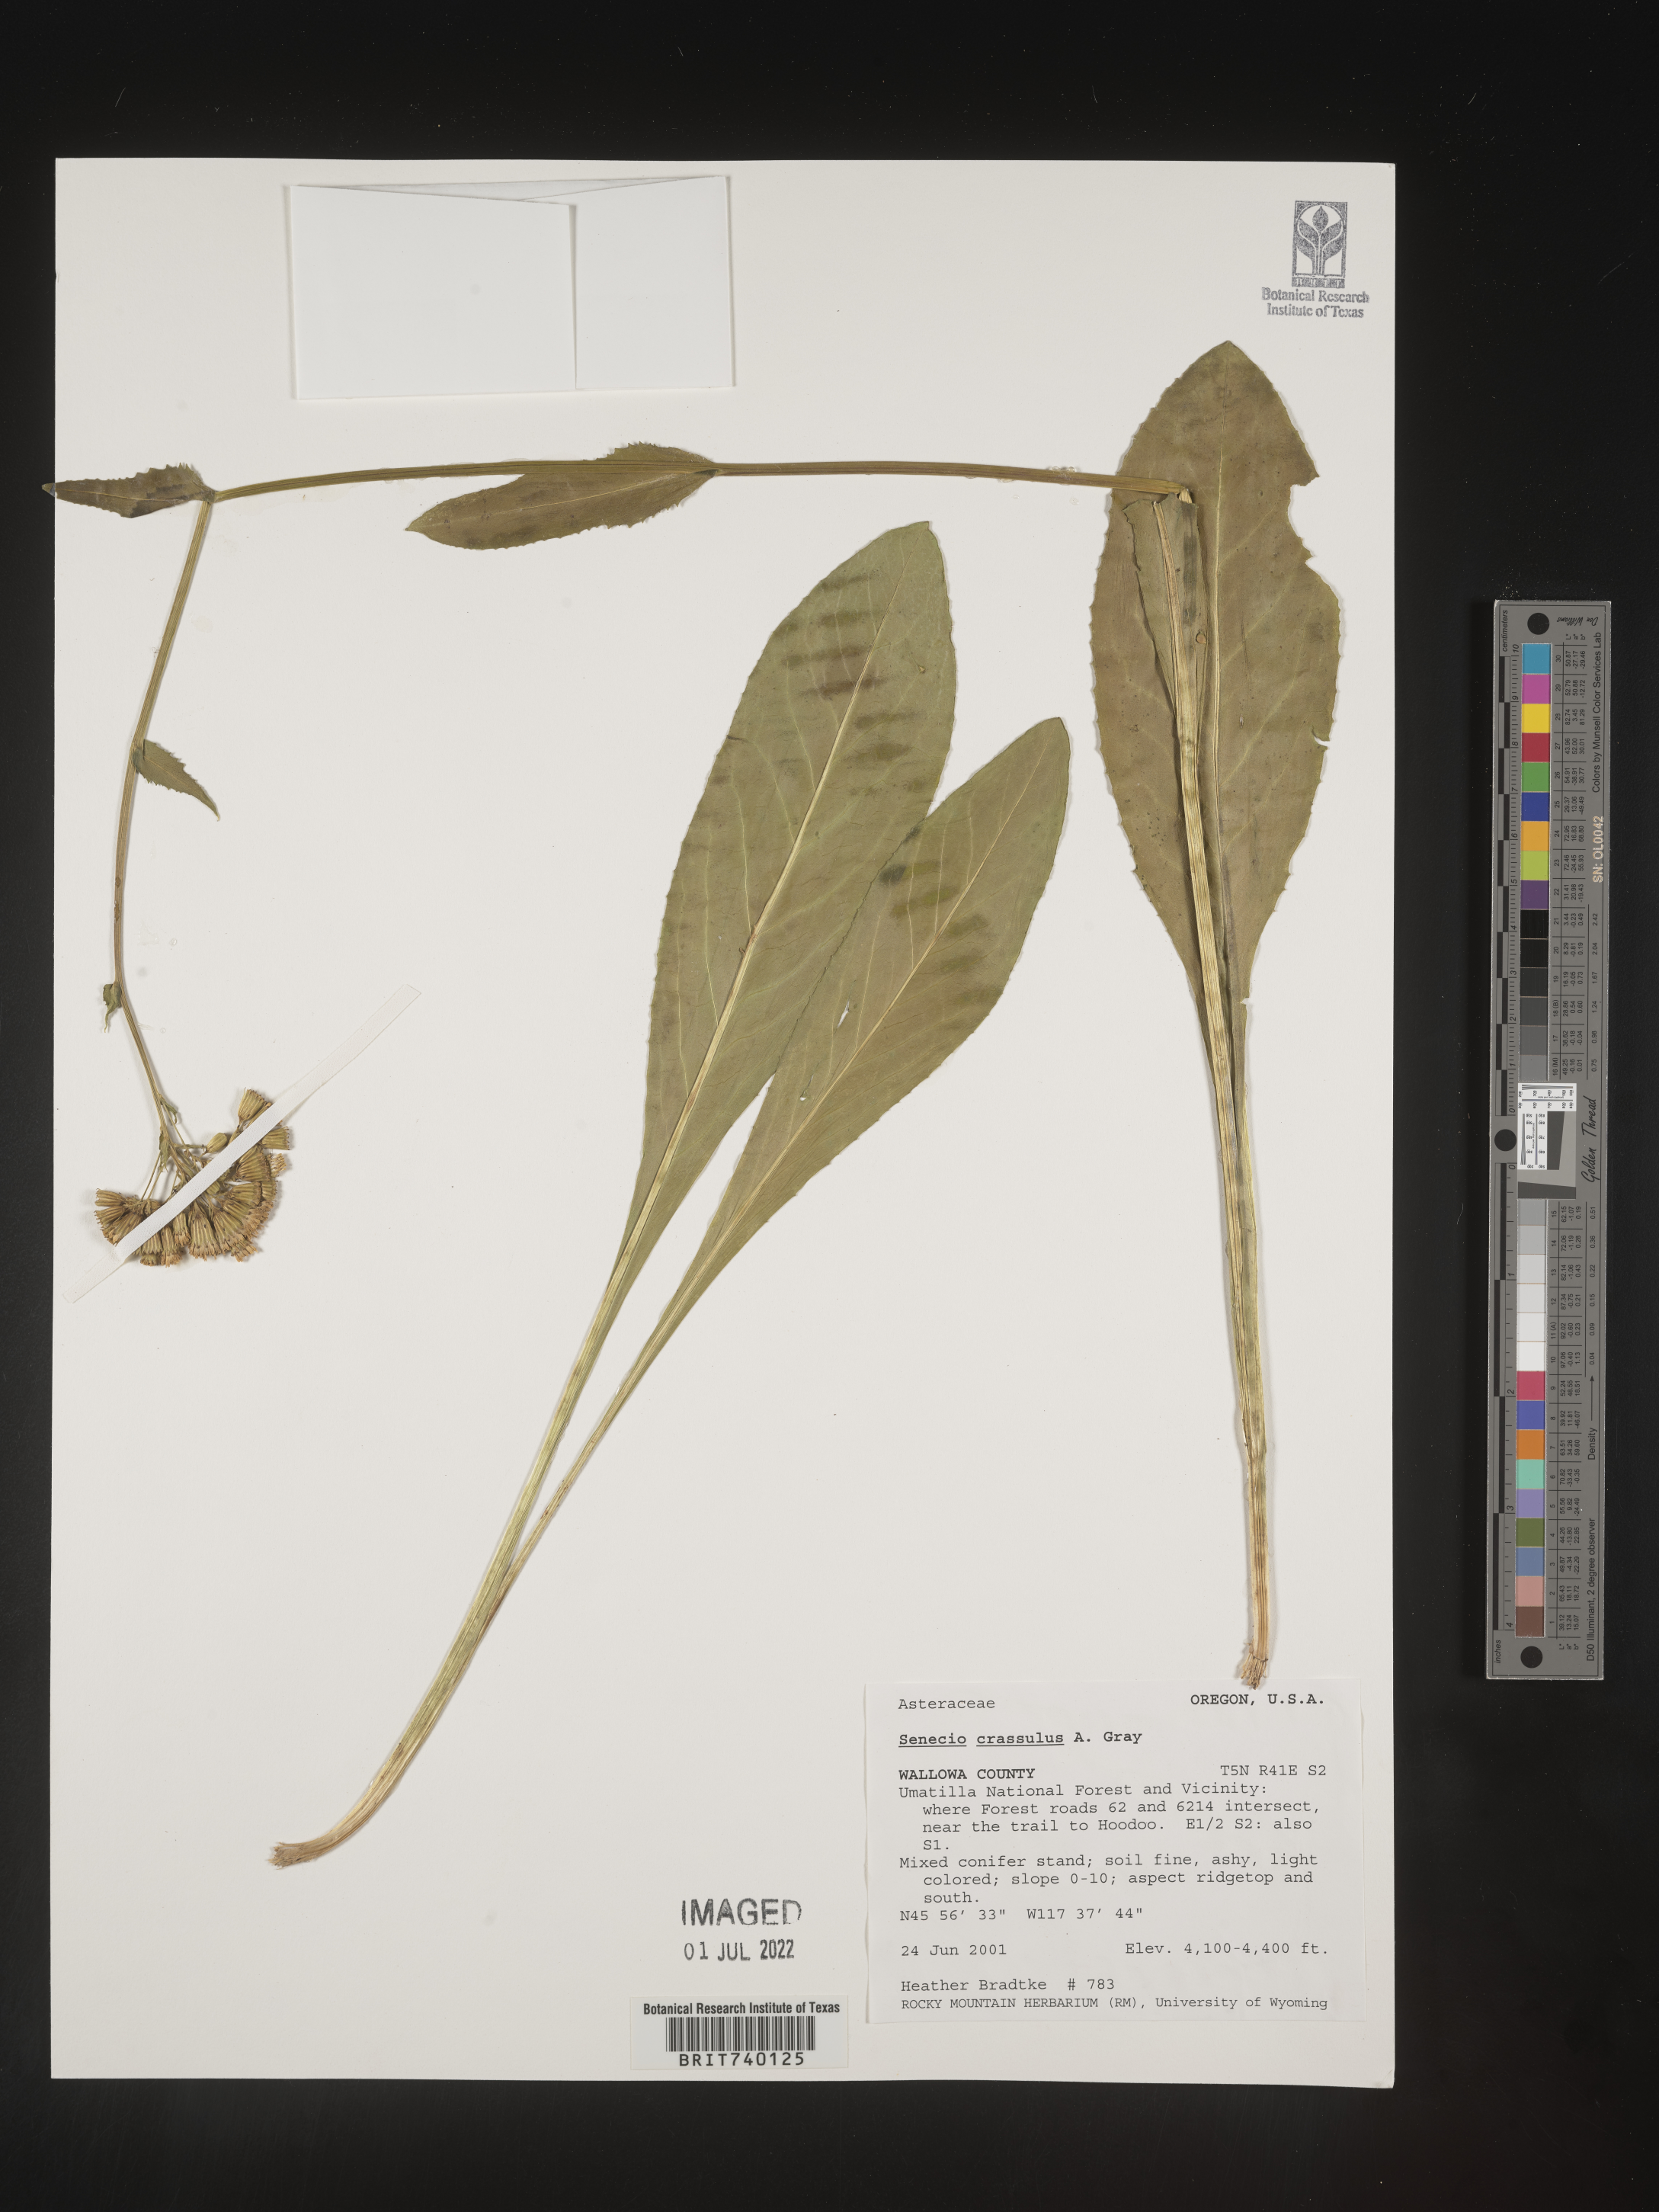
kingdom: Plantae
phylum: Tracheophyta
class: Magnoliopsida
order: Asterales
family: Asteraceae
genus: Senecio
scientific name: Senecio crassulus
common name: Mountain-meadow butterweed
